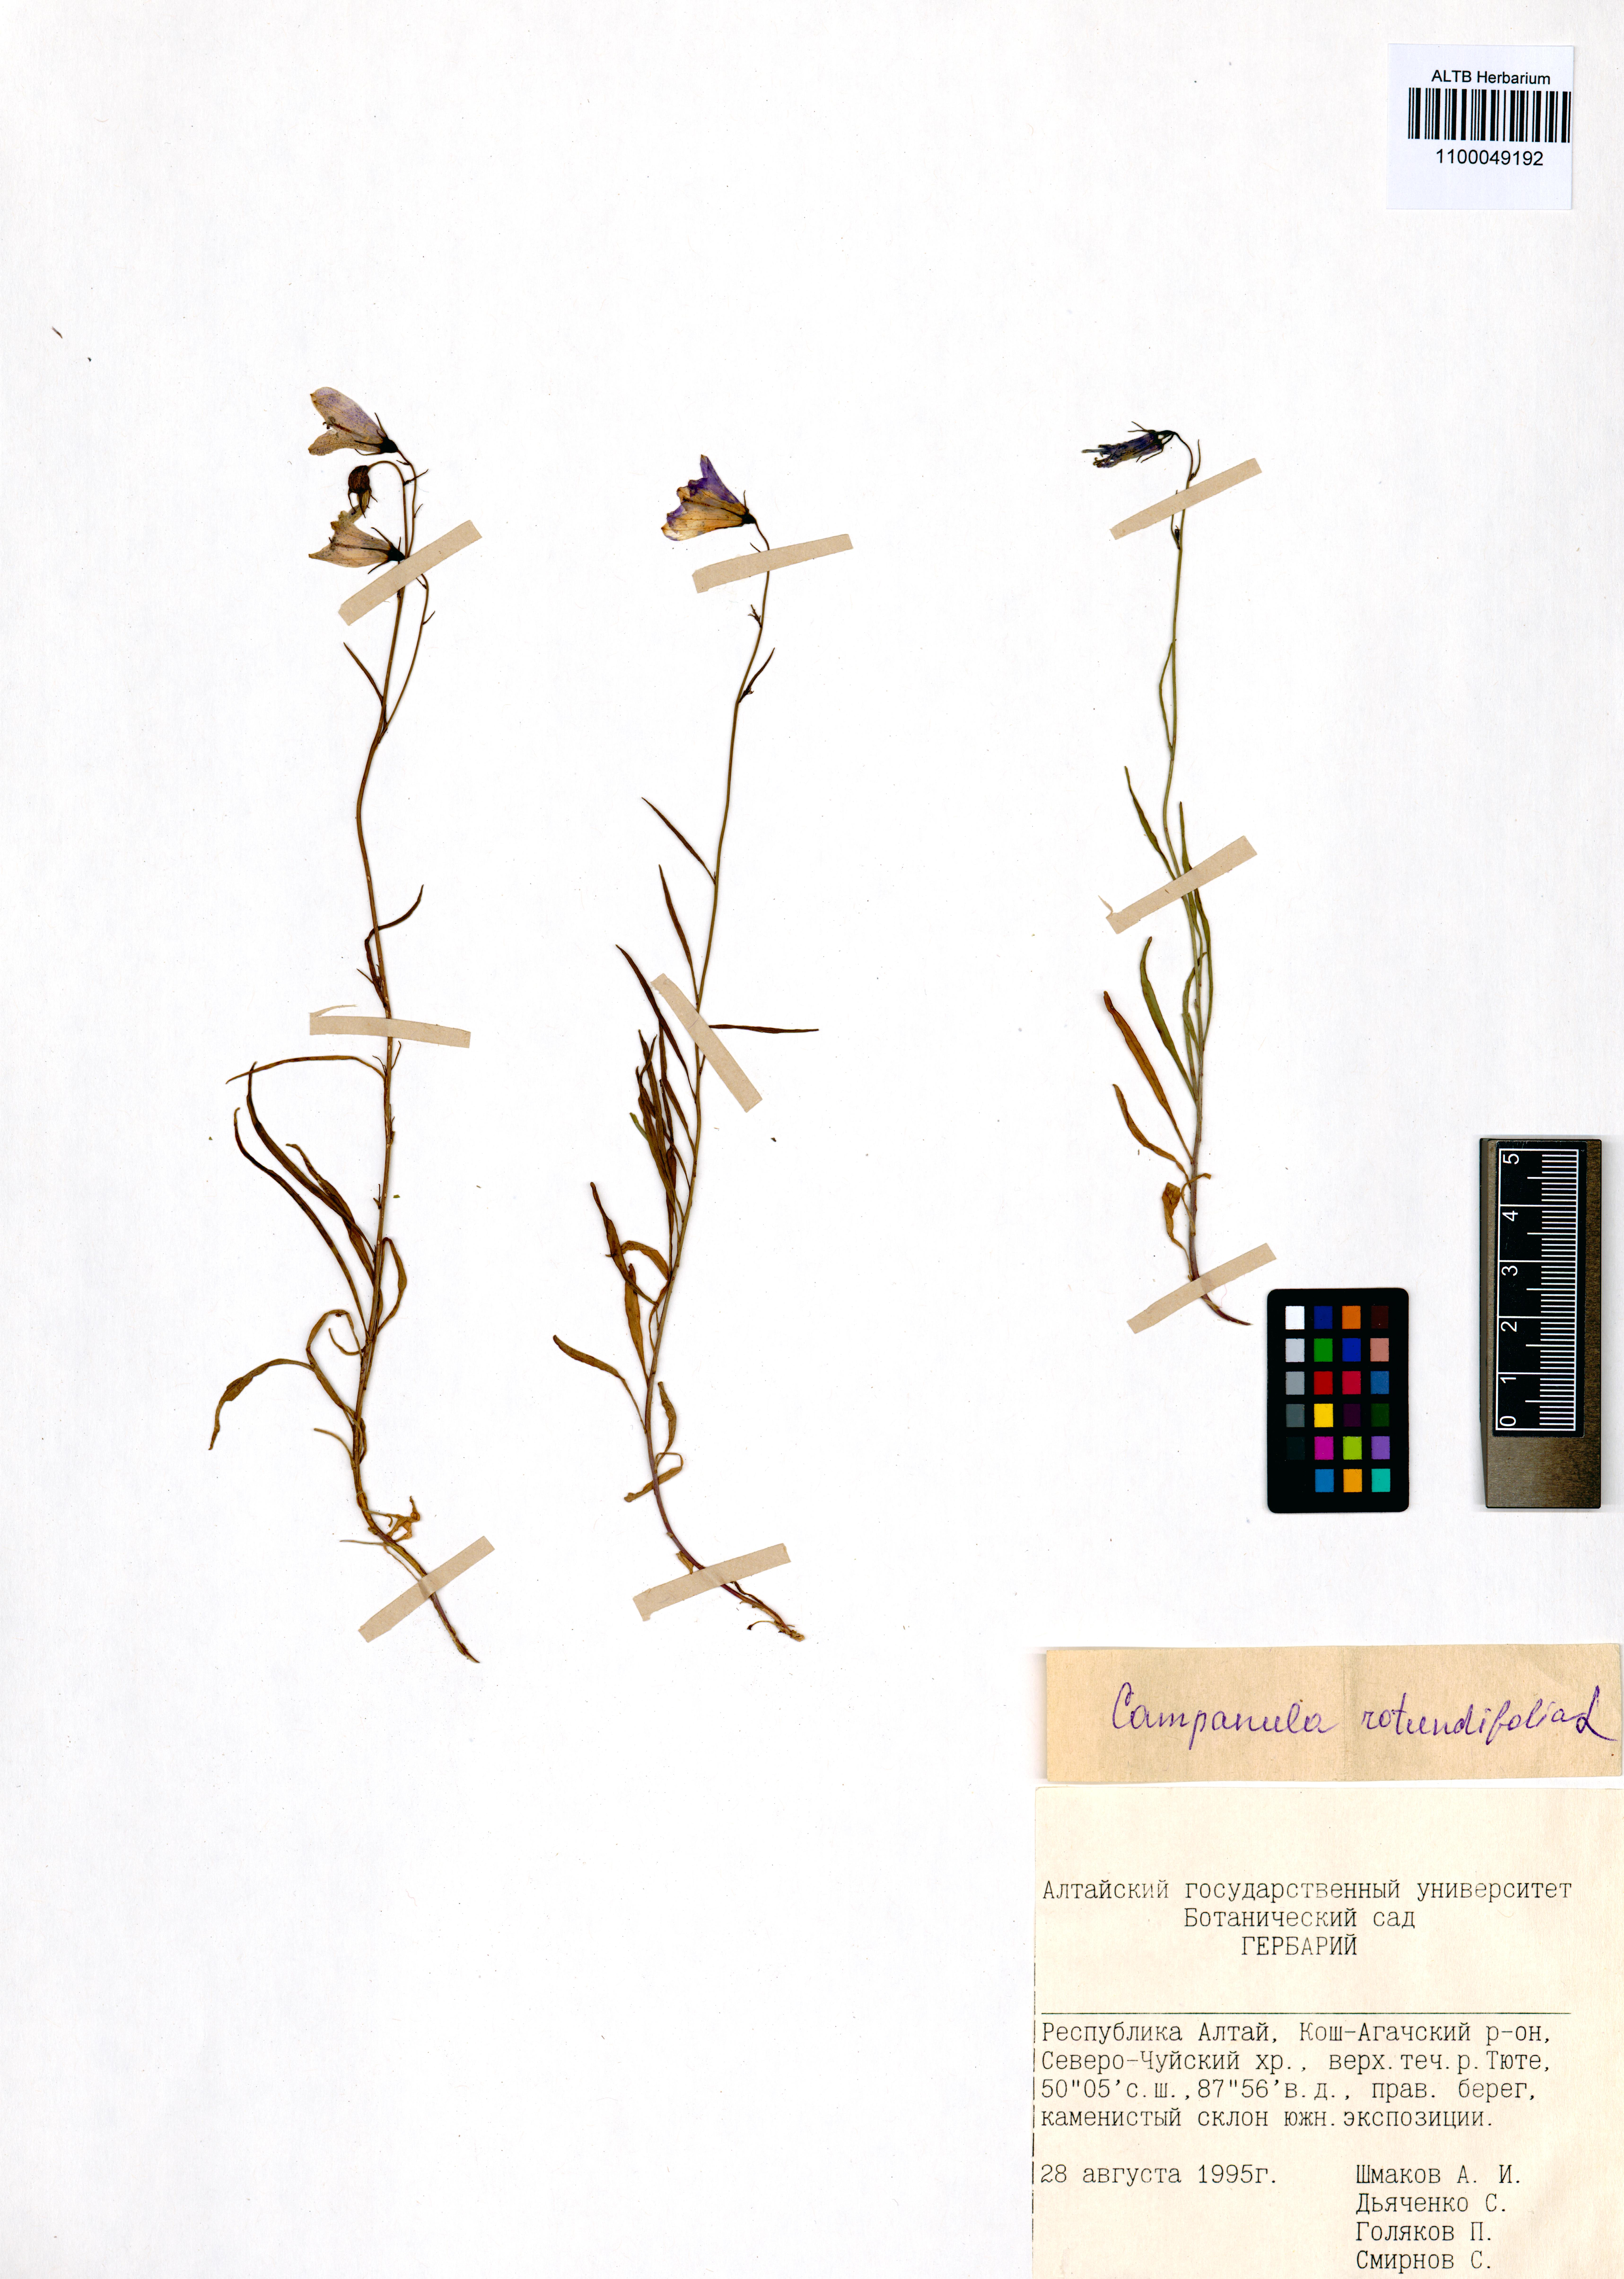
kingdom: Plantae
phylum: Tracheophyta
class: Magnoliopsida
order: Asterales
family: Campanulaceae
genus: Campanula
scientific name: Campanula rotundifolia
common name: Harebell
